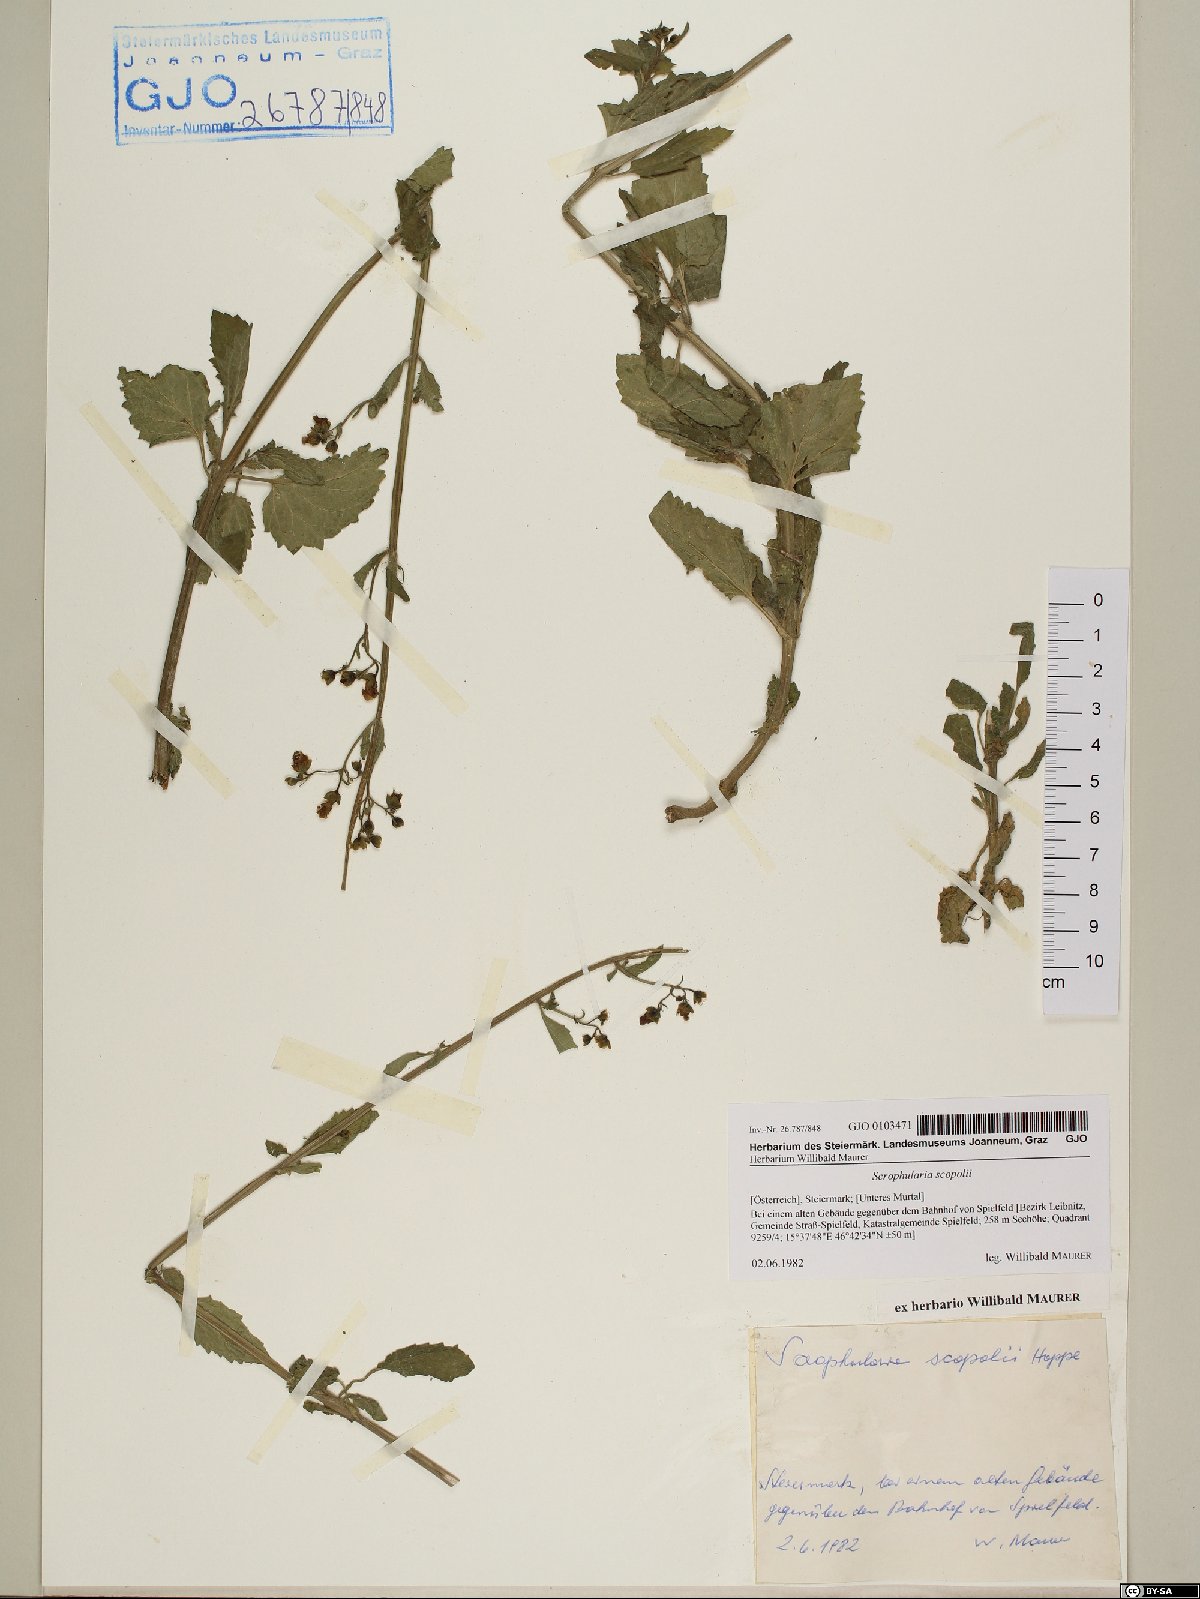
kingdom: Plantae
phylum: Tracheophyta
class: Magnoliopsida
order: Lamiales
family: Scrophulariaceae
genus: Scrophularia
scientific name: Scrophularia scopolii
